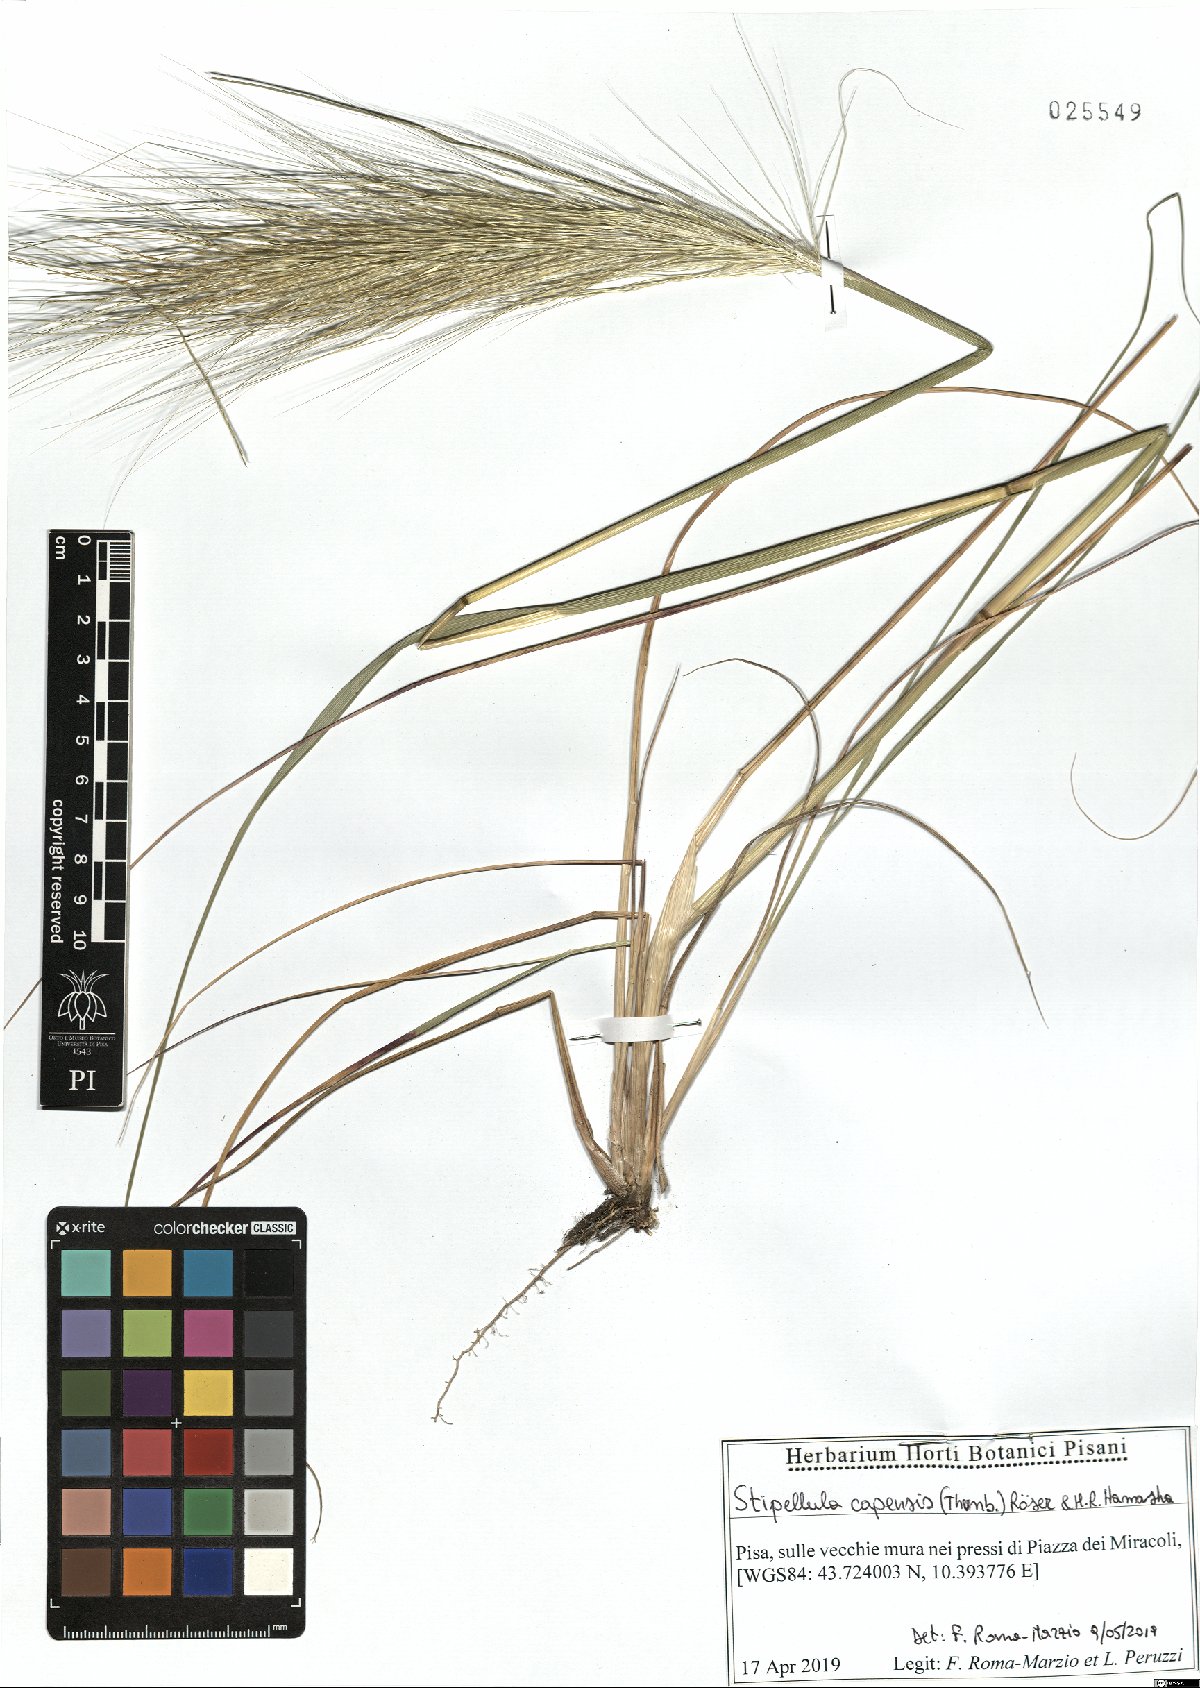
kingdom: Plantae
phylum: Tracheophyta
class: Liliopsida
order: Poales
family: Poaceae
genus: Stipellula
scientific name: Stipellula capensis
